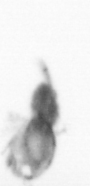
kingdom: Animalia
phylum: Arthropoda
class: Copepoda
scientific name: Copepoda
